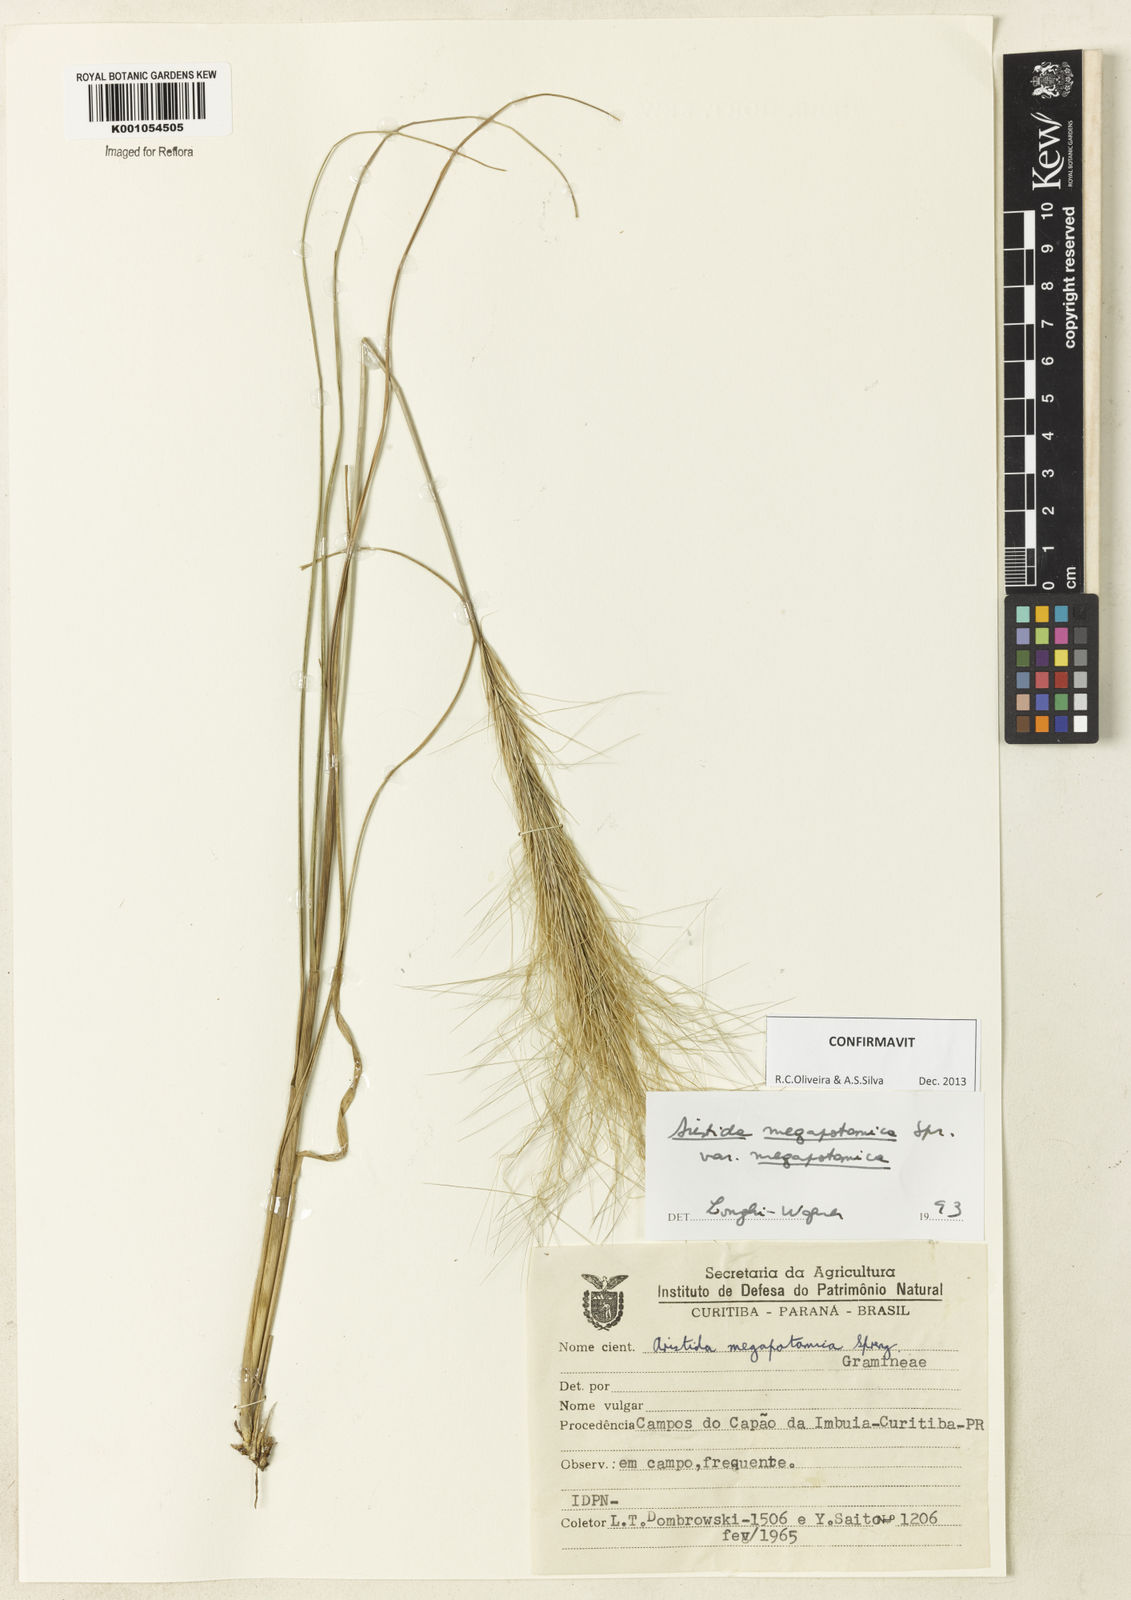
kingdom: Plantae
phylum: Tracheophyta
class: Liliopsida
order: Poales
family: Poaceae
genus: Aristida
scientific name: Aristida megapotamica
